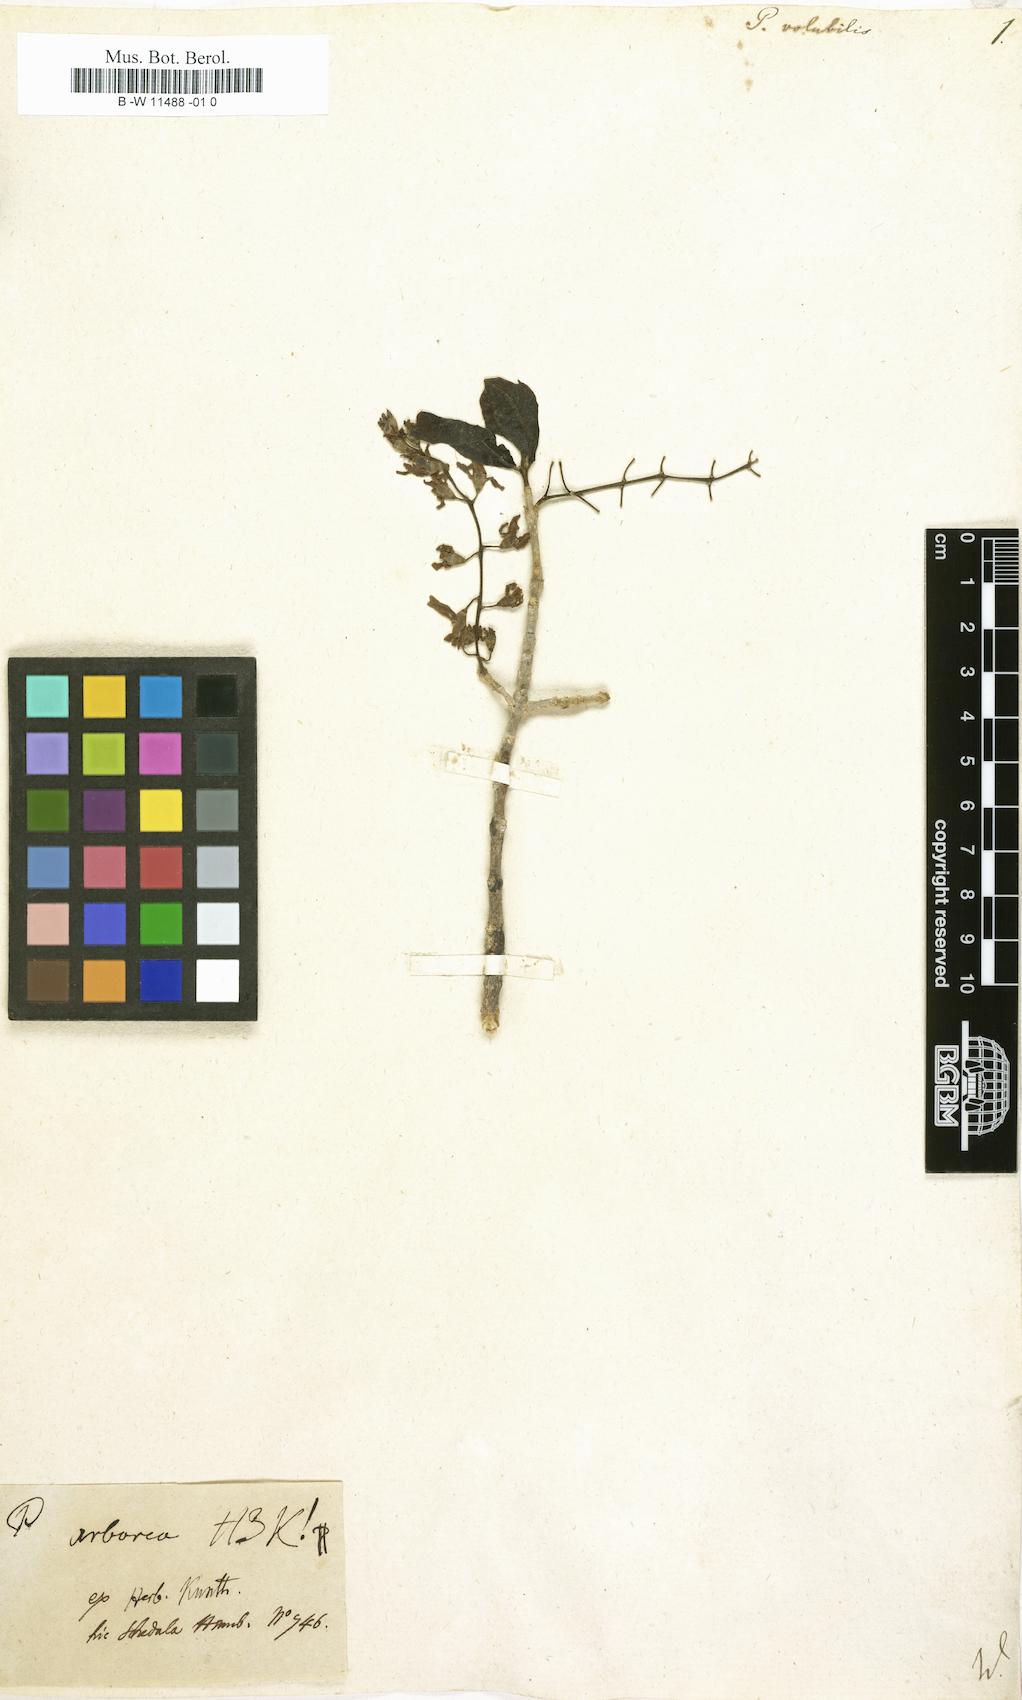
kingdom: Plantae
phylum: Tracheophyta
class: Magnoliopsida
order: Lamiales
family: Verbenaceae
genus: Petrea
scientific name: Petrea volubilis
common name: Queen's-wreath
